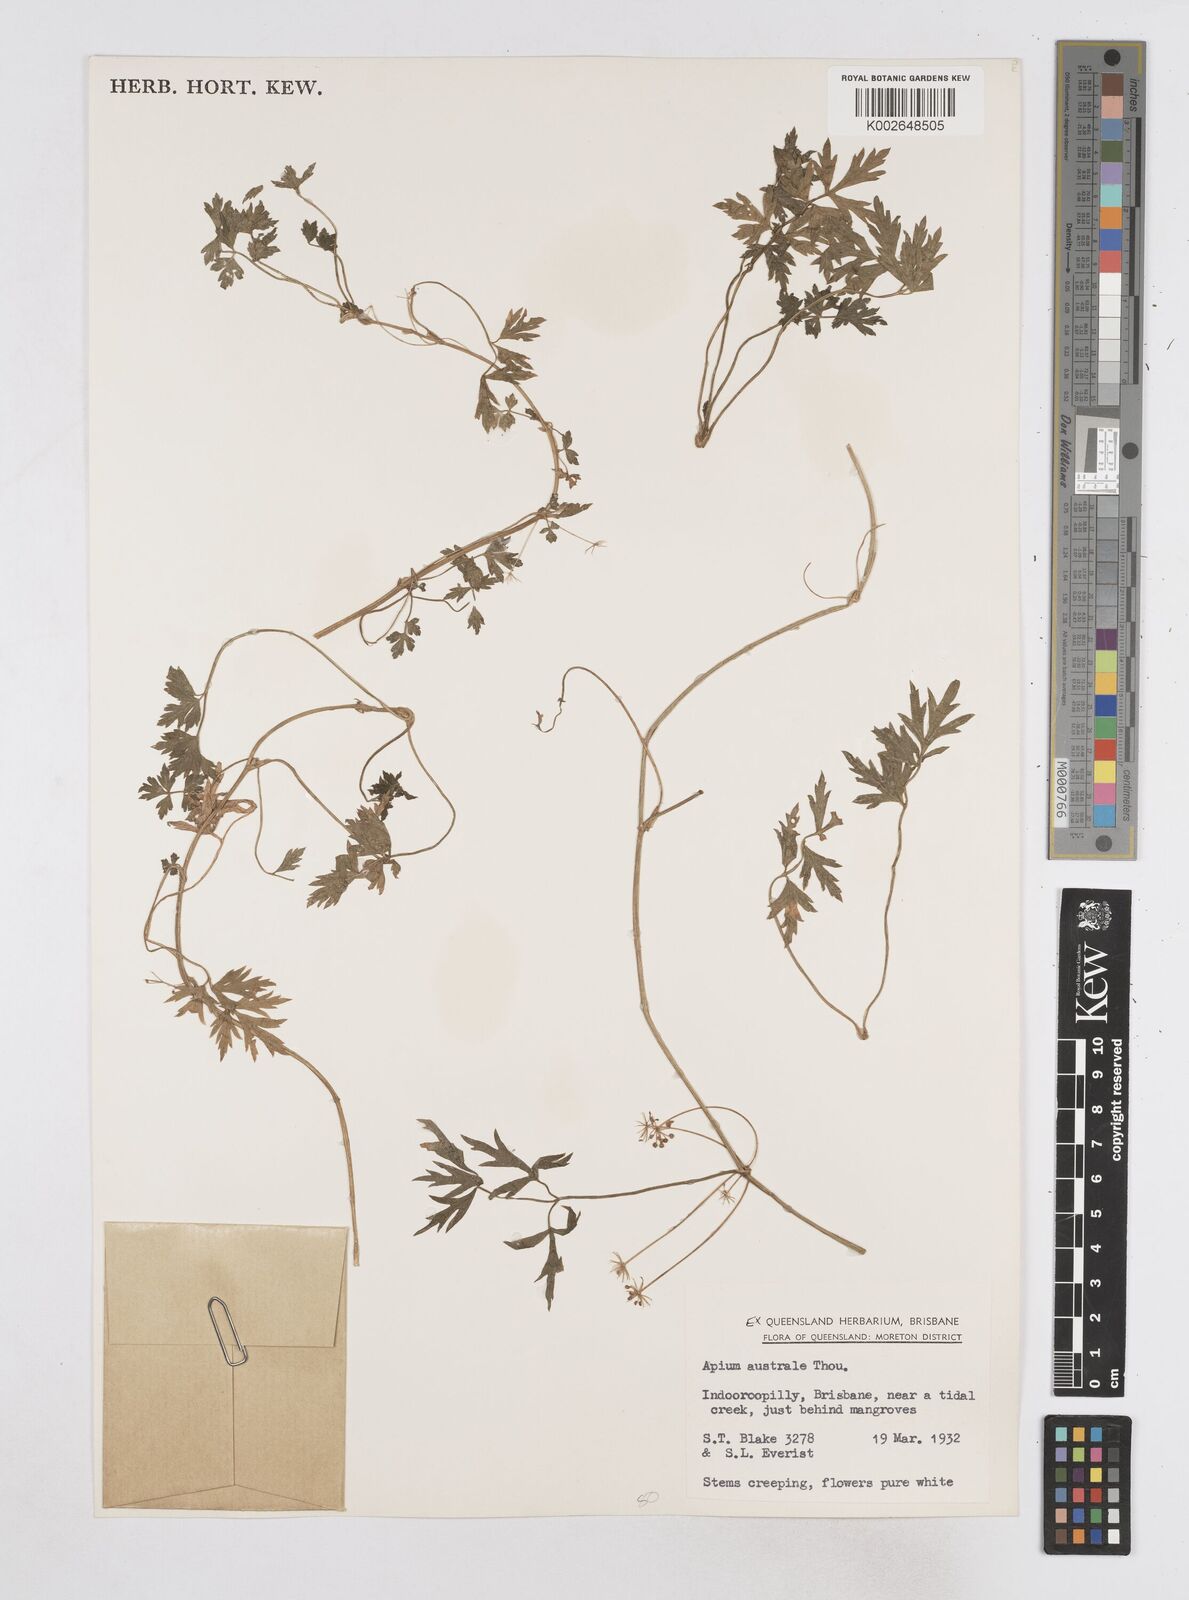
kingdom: Plantae
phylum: Tracheophyta
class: Magnoliopsida
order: Apiales
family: Apiaceae
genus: Apium
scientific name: Apium prostratum
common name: Prostrate marshwort
